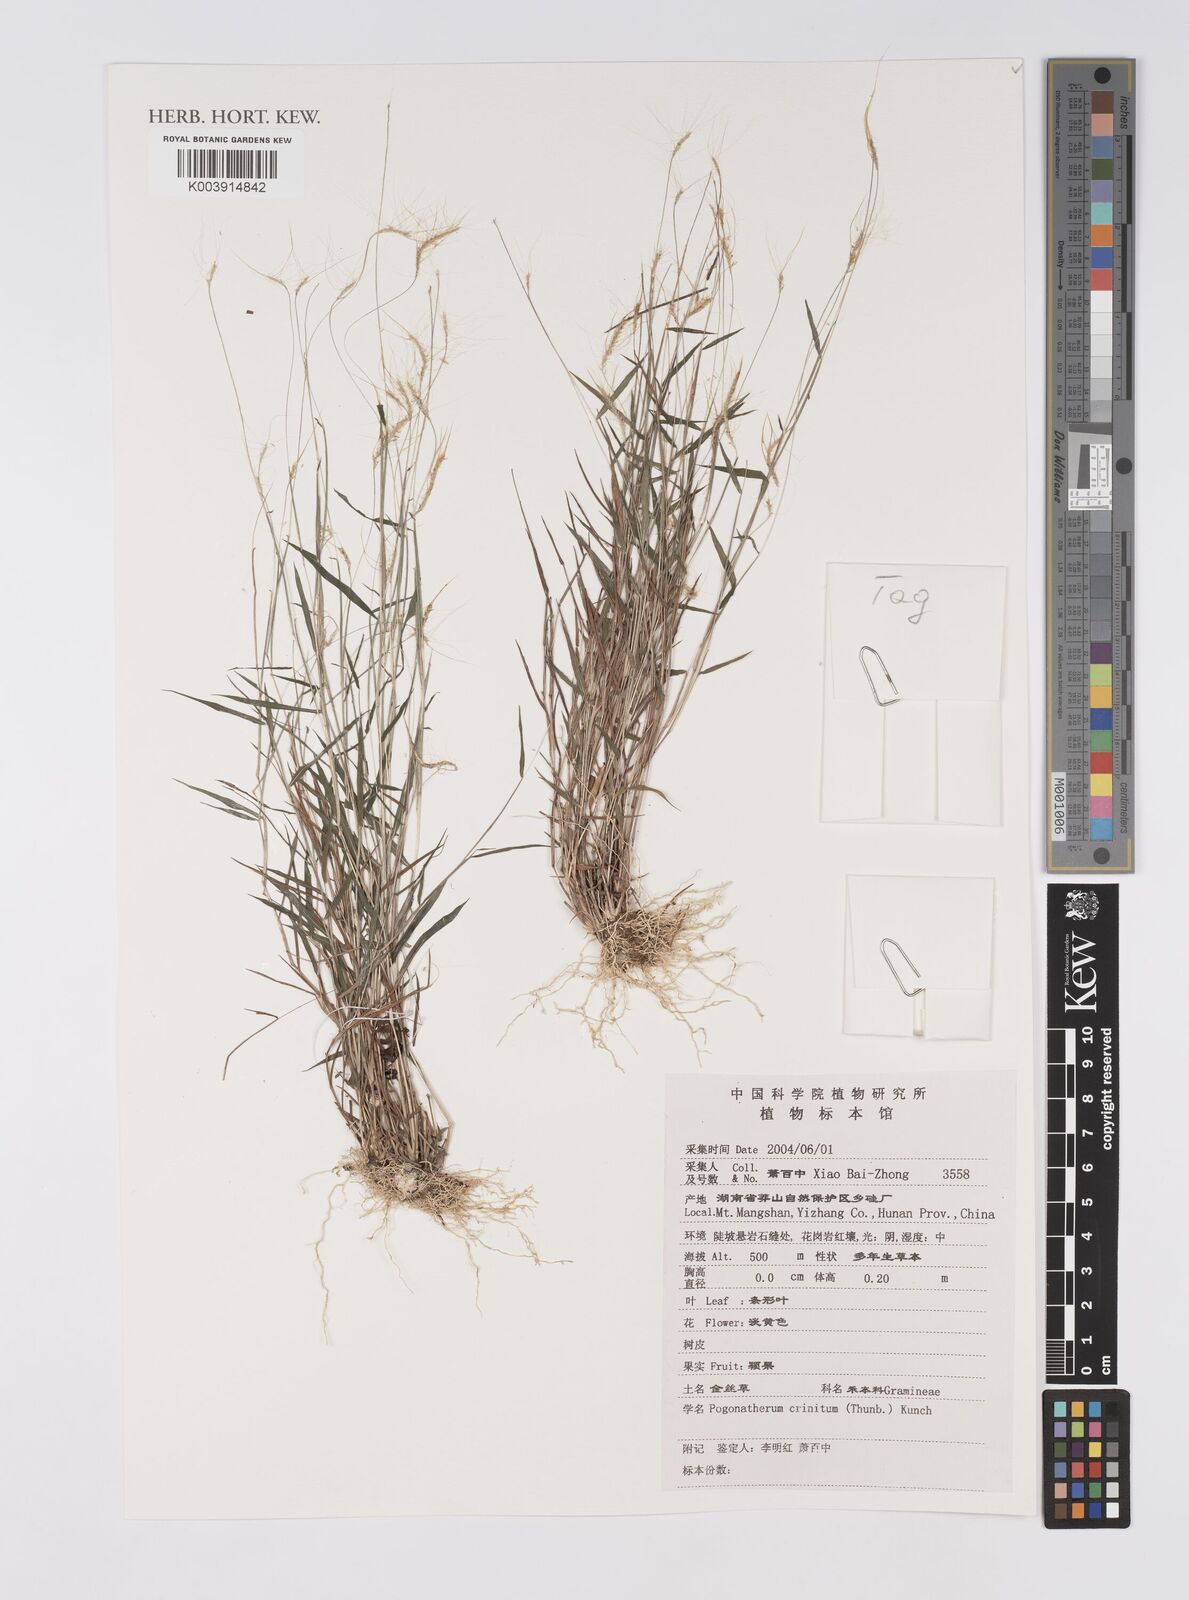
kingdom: Plantae
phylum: Tracheophyta
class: Liliopsida
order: Poales
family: Poaceae
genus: Pogonatherum
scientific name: Pogonatherum crinitum
